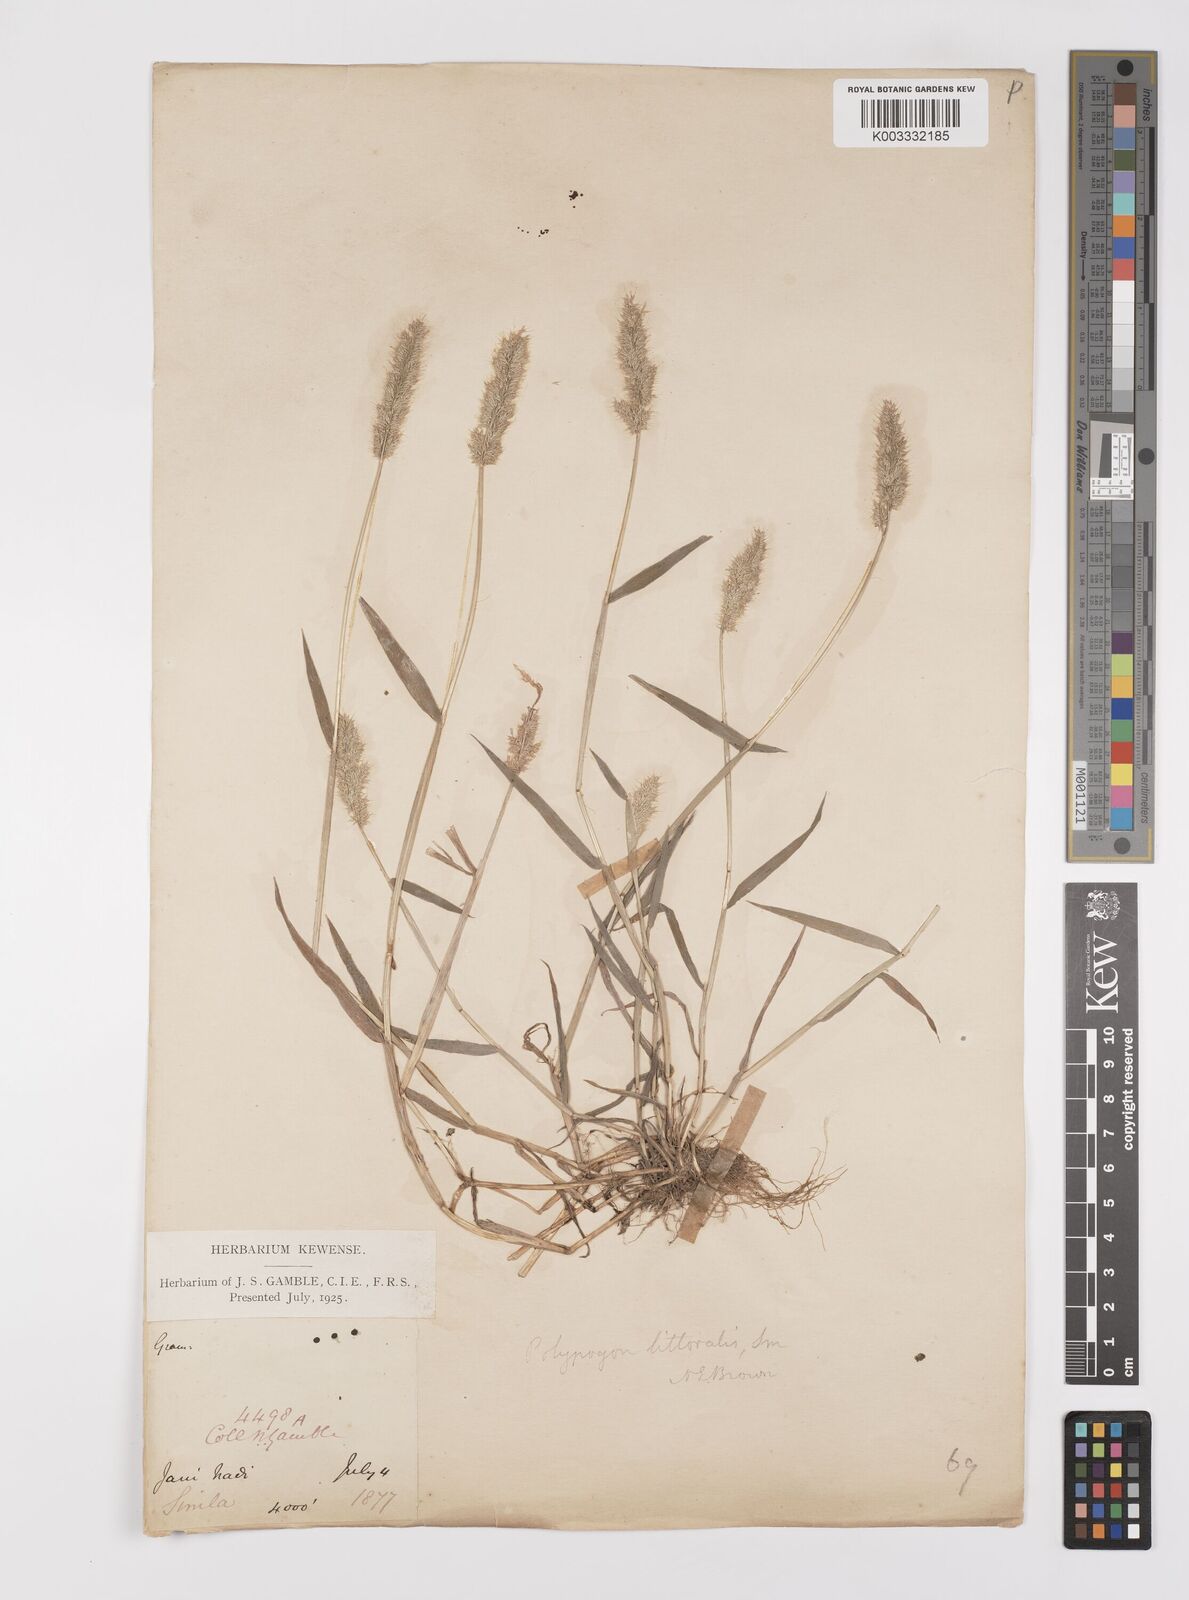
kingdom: Plantae
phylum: Tracheophyta
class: Liliopsida
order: Poales
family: Poaceae
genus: Polypogon
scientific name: Polypogon fugax
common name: Asia minor bluegrass
